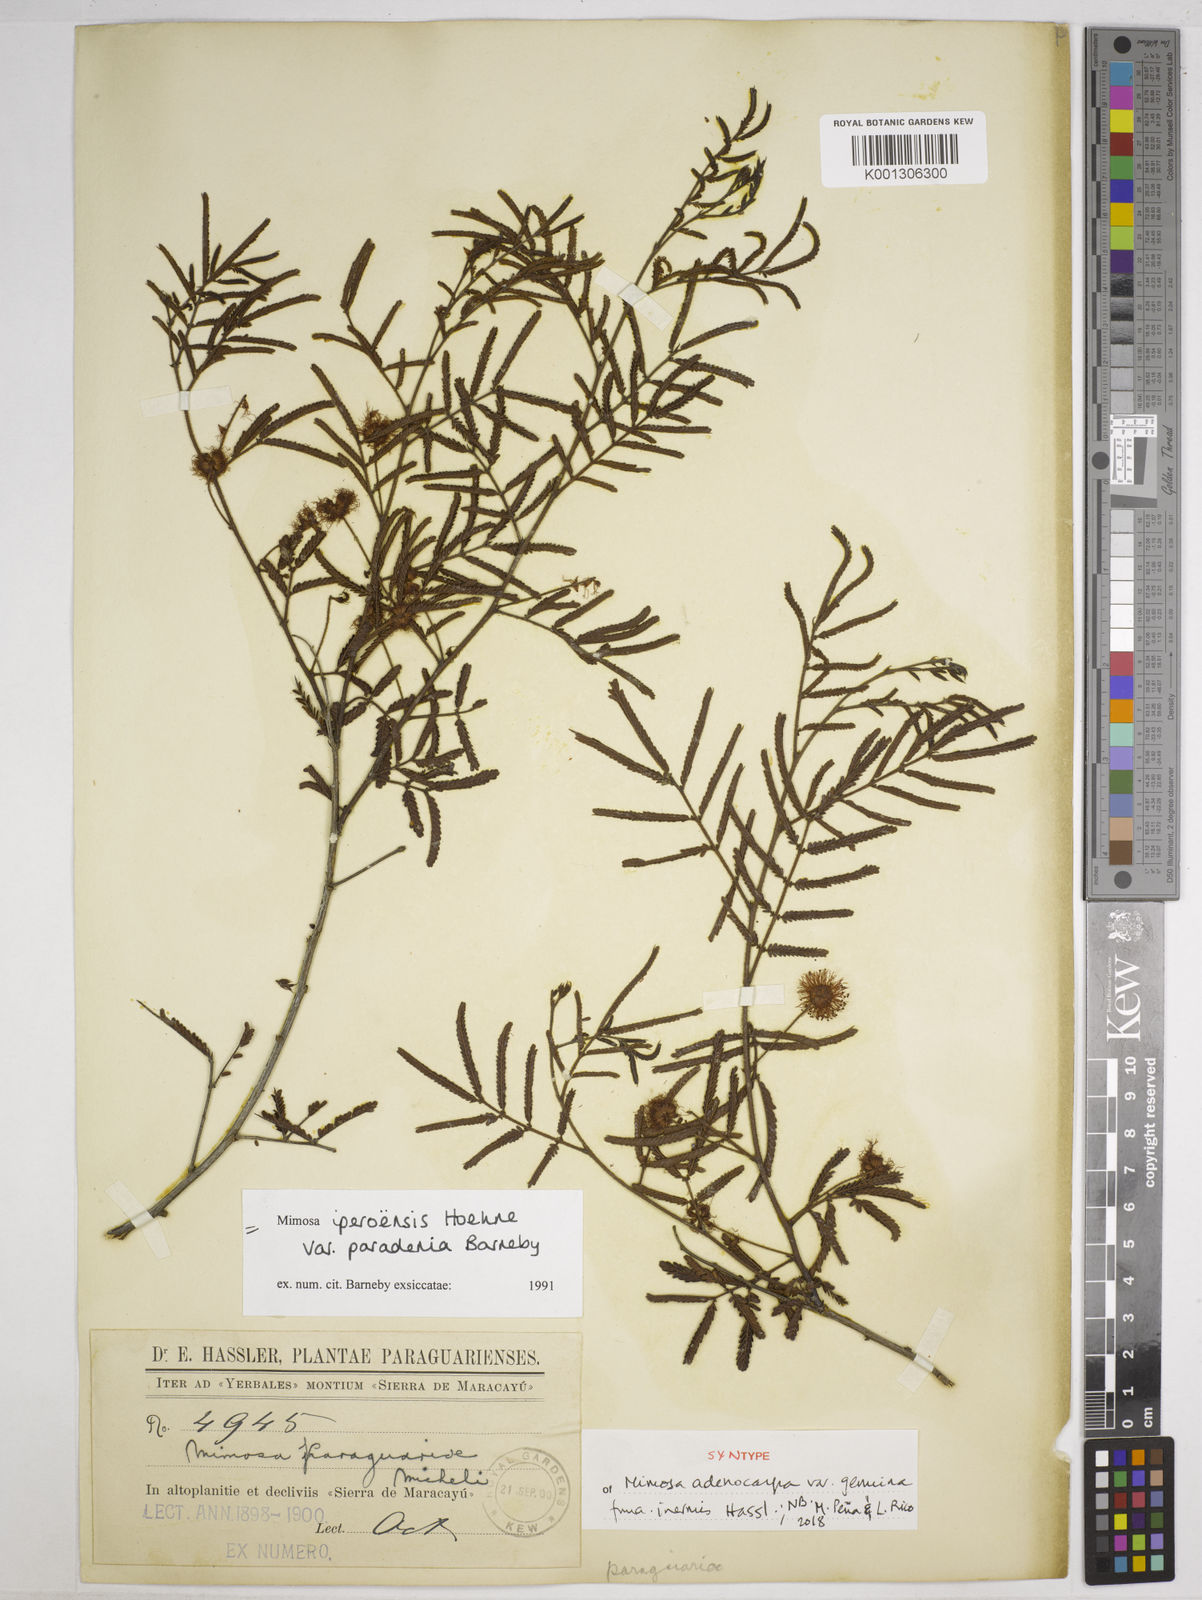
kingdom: Plantae
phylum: Tracheophyta
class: Magnoliopsida
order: Fabales
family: Fabaceae
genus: Mimosa
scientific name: Mimosa iperoensis
